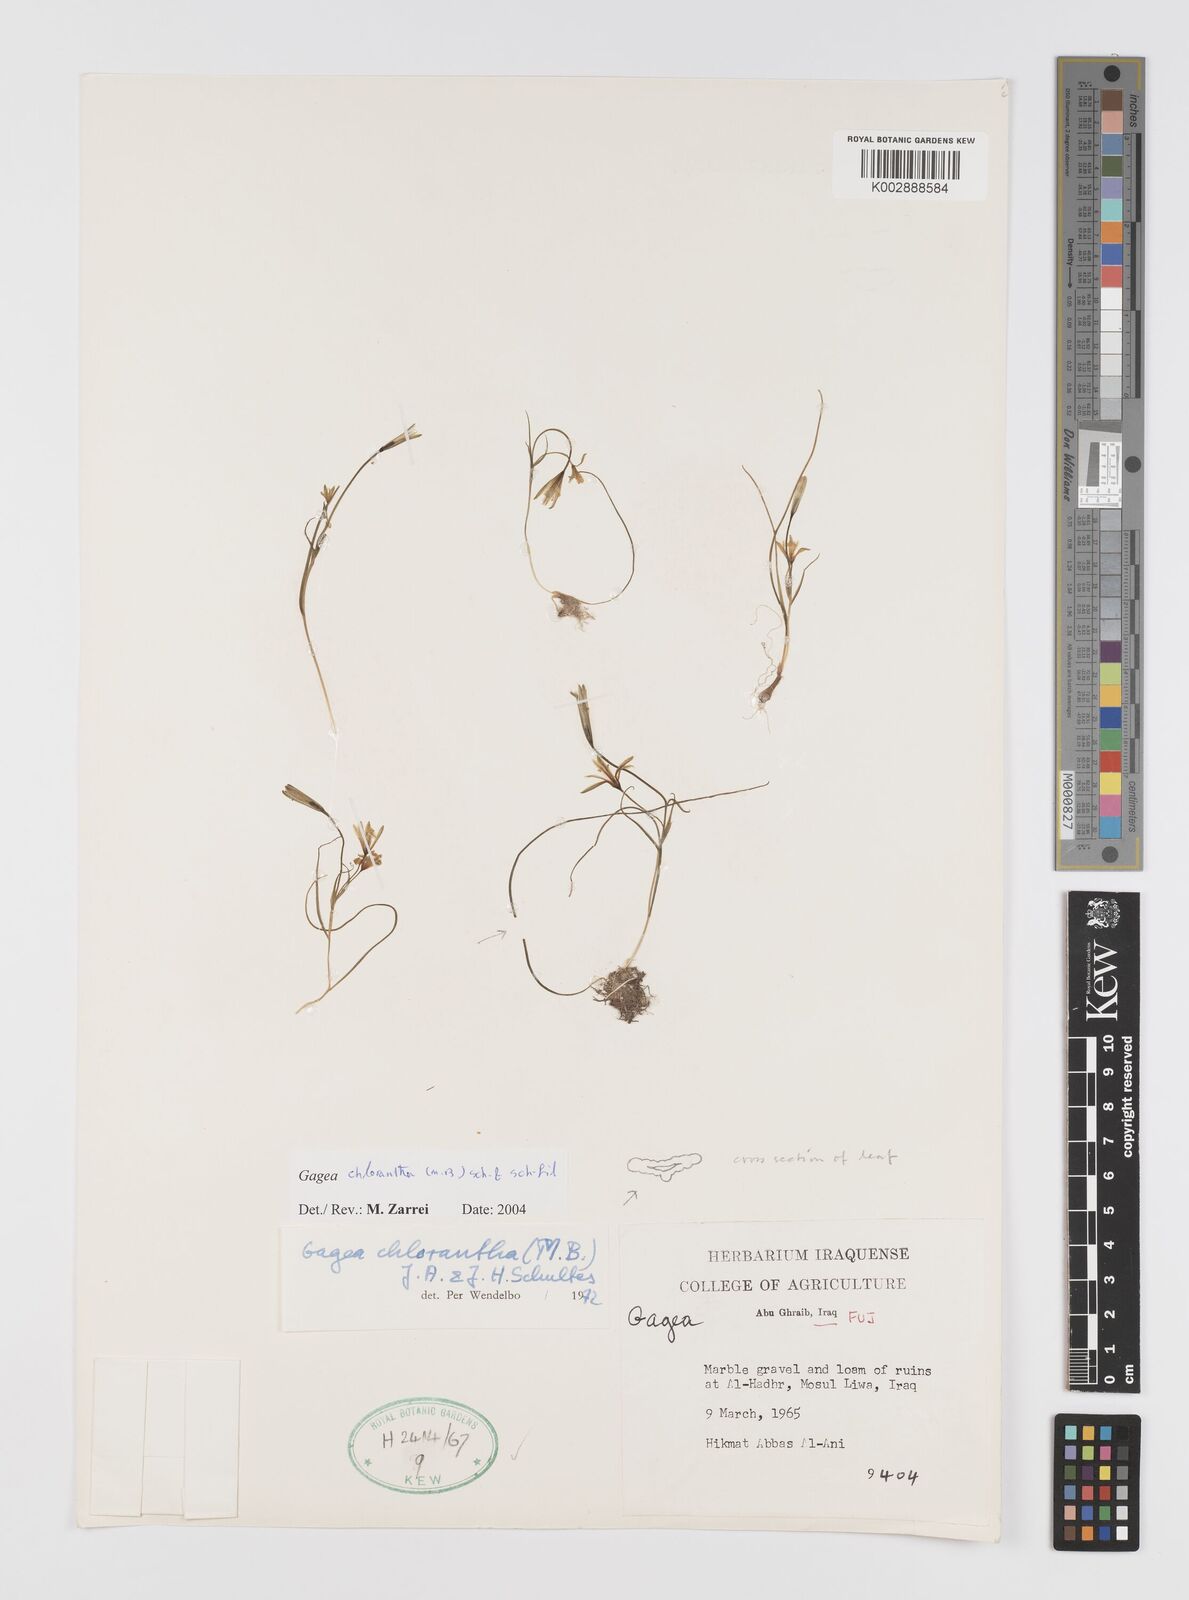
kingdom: Plantae
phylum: Tracheophyta
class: Liliopsida
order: Liliales
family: Liliaceae
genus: Gagea
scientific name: Gagea chlorantha
